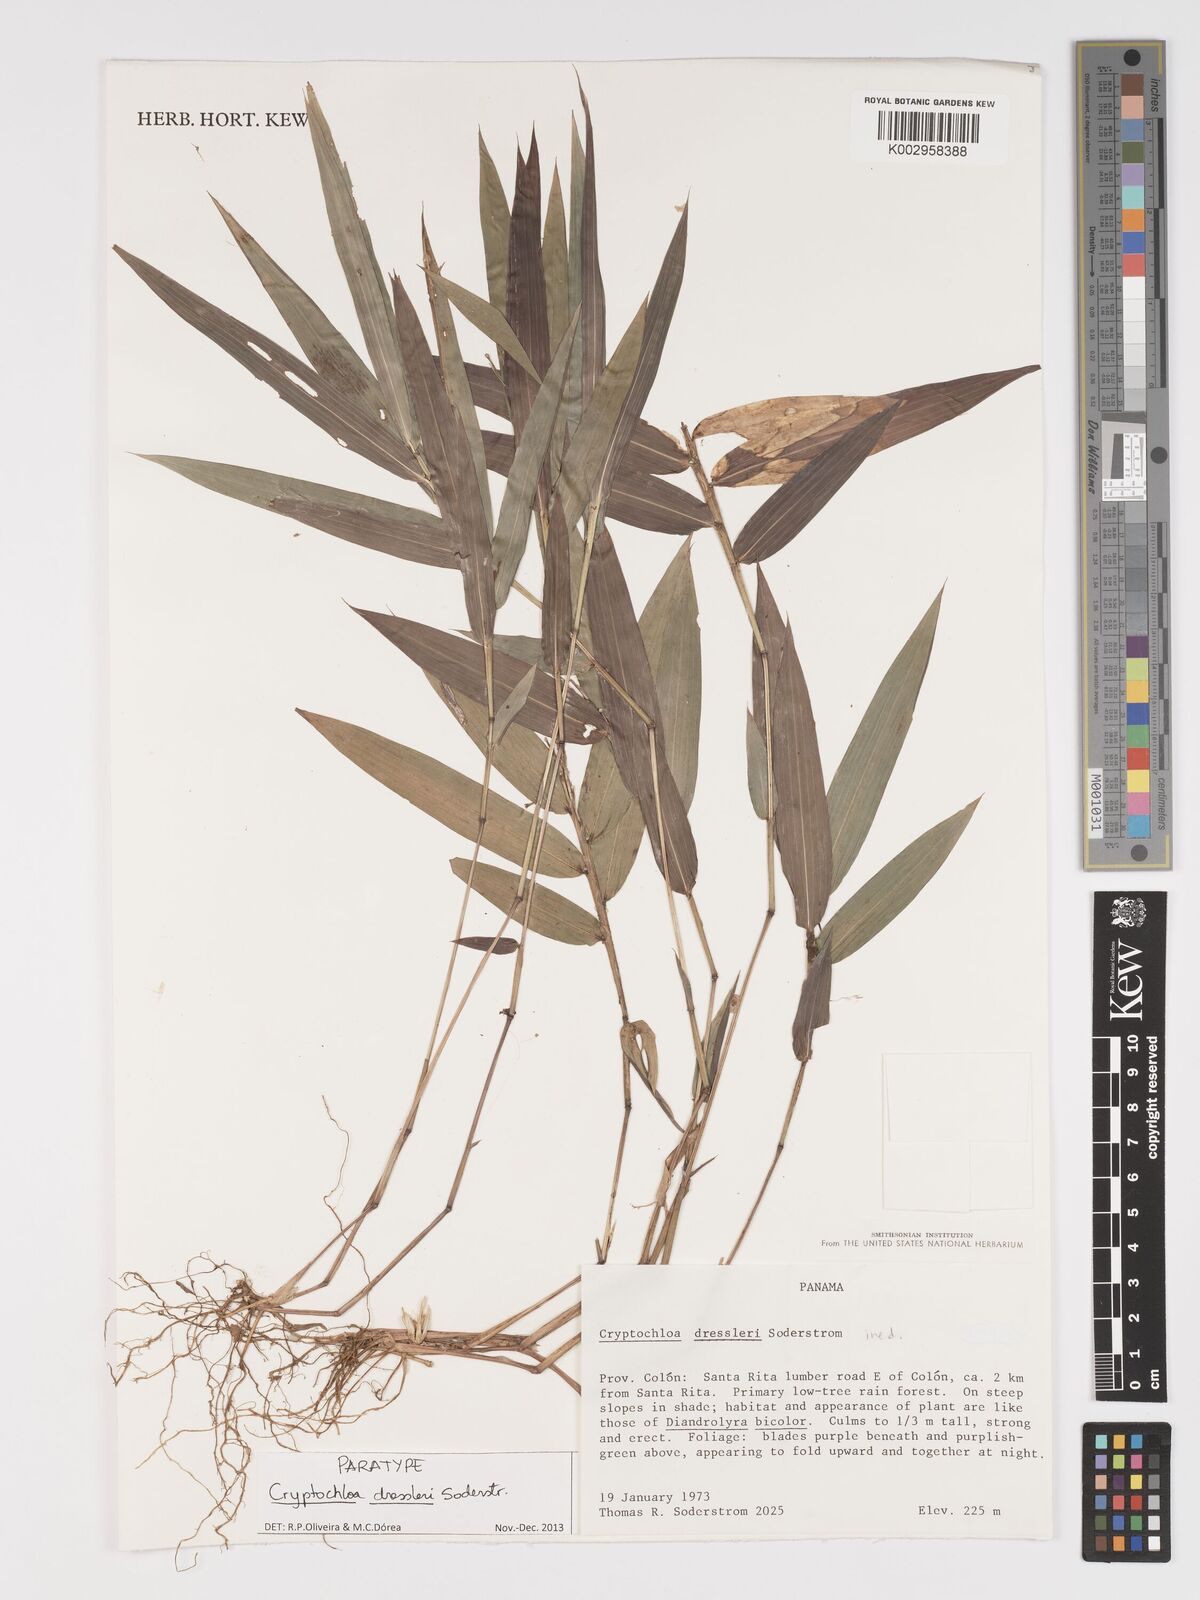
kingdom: Plantae
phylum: Tracheophyta
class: Liliopsida
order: Poales
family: Poaceae
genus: Cryptochloa
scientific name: Cryptochloa dressleri
